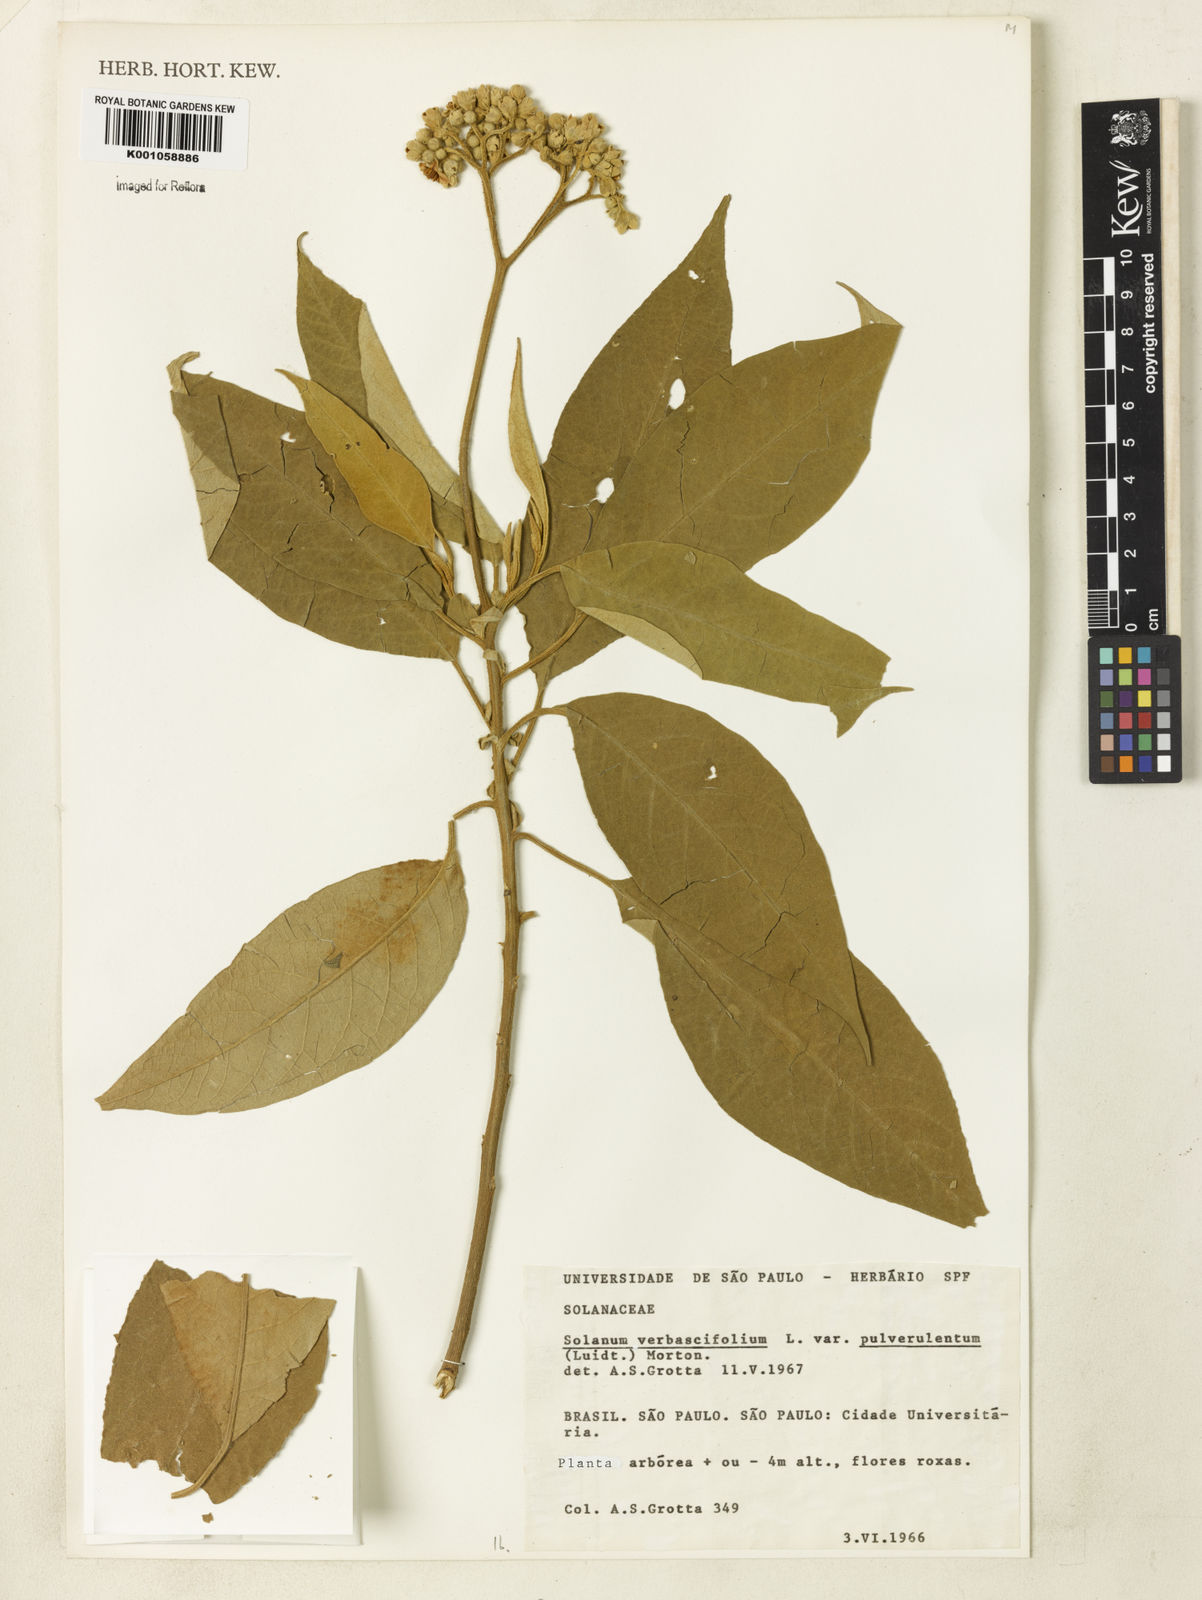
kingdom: Plantae
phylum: Tracheophyta
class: Magnoliopsida
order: Solanales
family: Solanaceae
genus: Solanum
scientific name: Solanum
